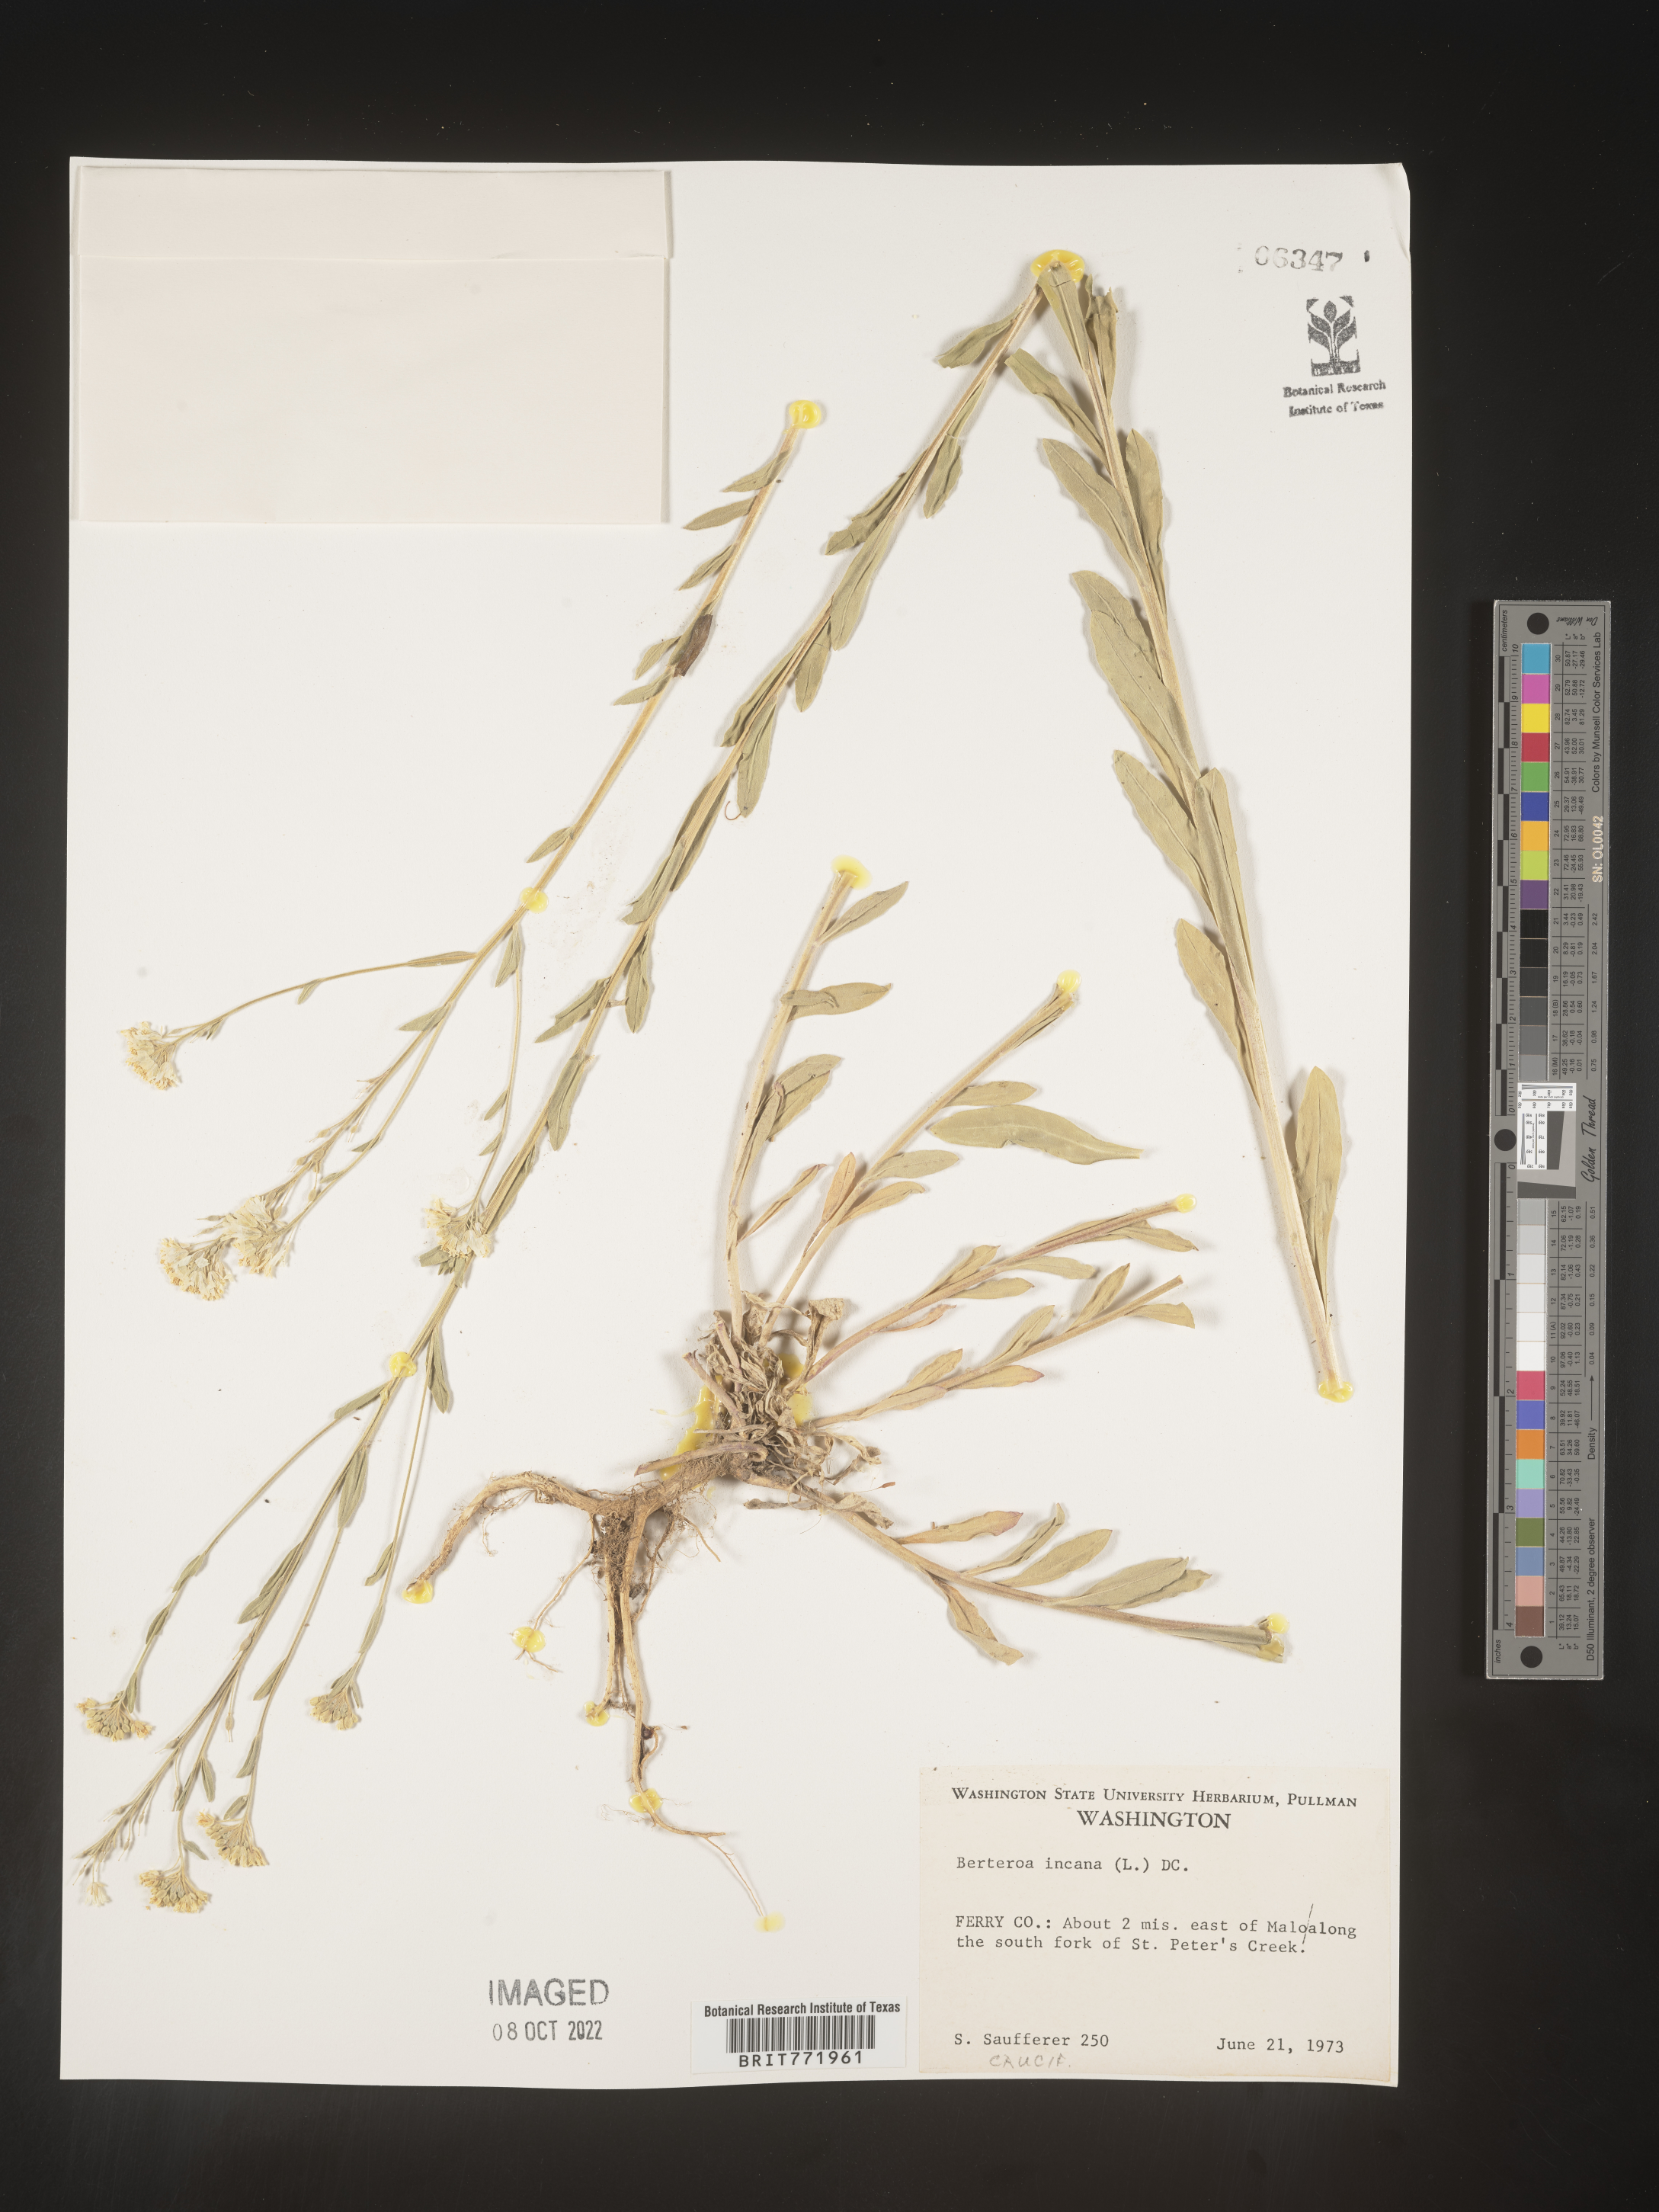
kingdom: Plantae
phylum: Tracheophyta
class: Magnoliopsida
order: Brassicales
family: Brassicaceae
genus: Berteroa
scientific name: Berteroa incana
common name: Hoary alison
